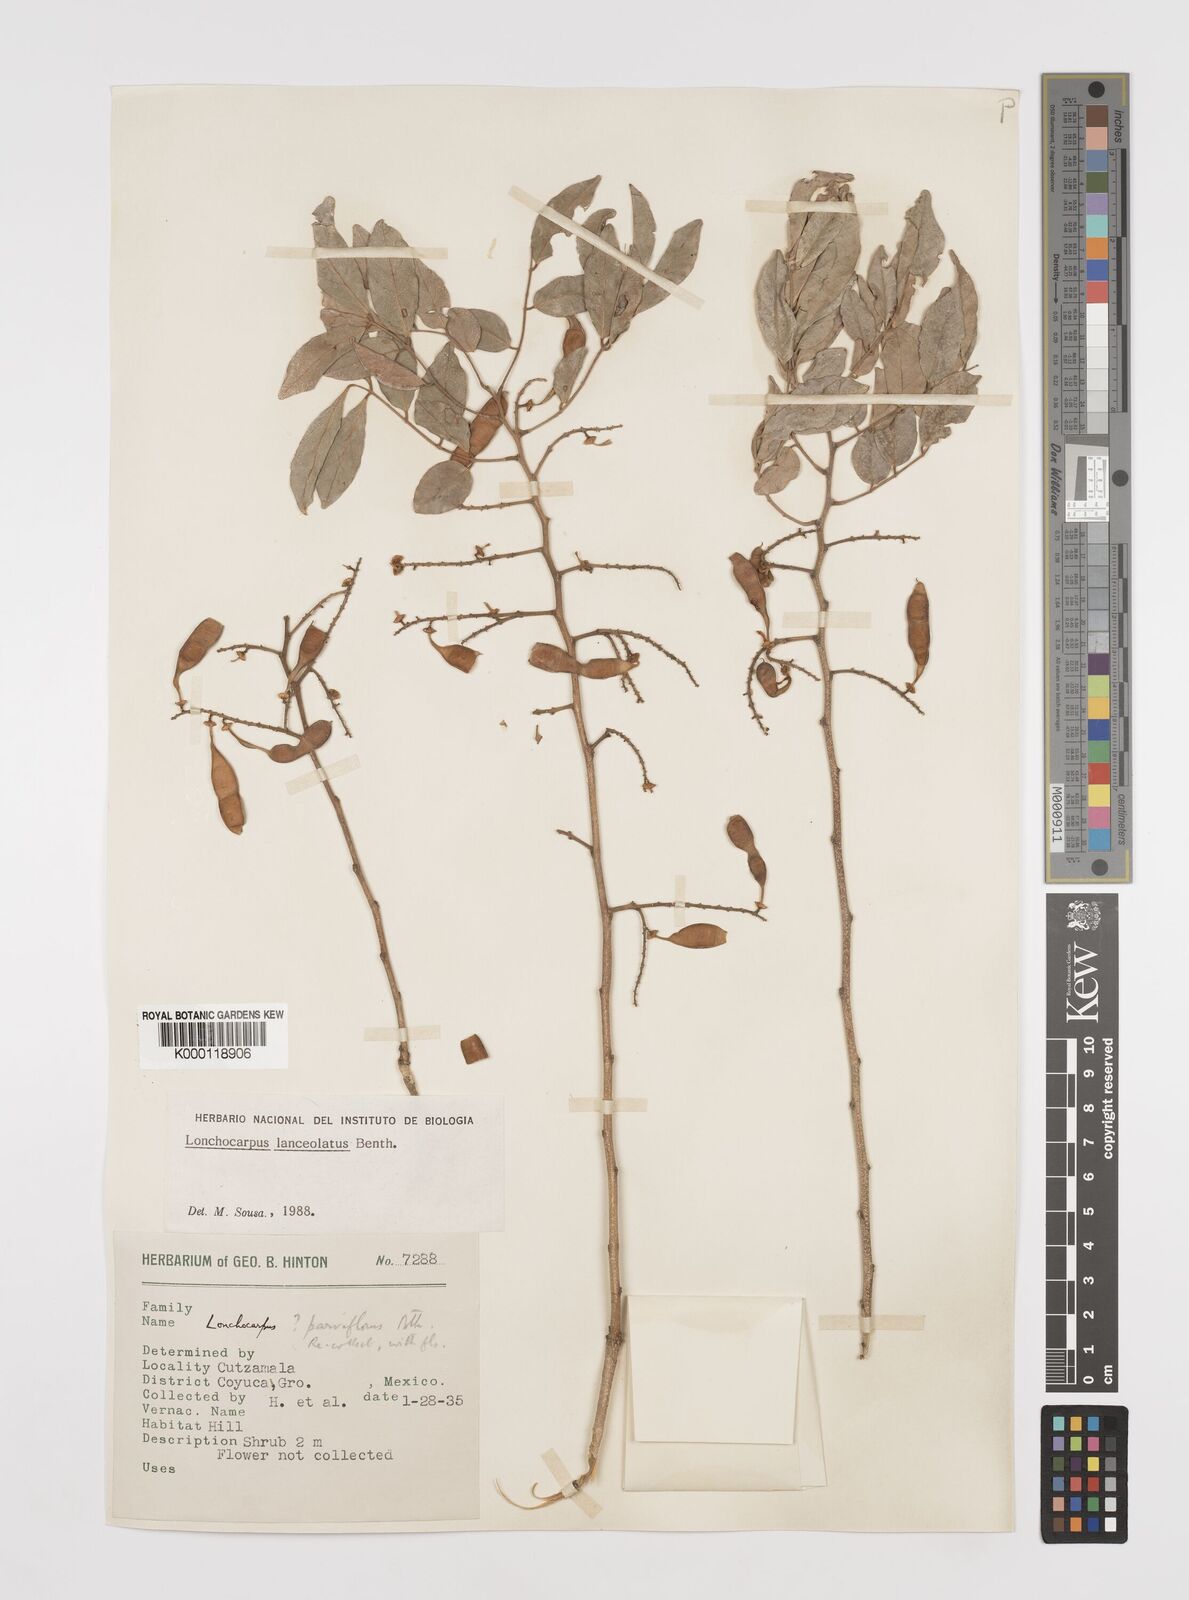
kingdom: Plantae
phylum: Tracheophyta
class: Magnoliopsida
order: Fabales
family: Fabaceae
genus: Lonchocarpus
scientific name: Lonchocarpus lanceolatus
